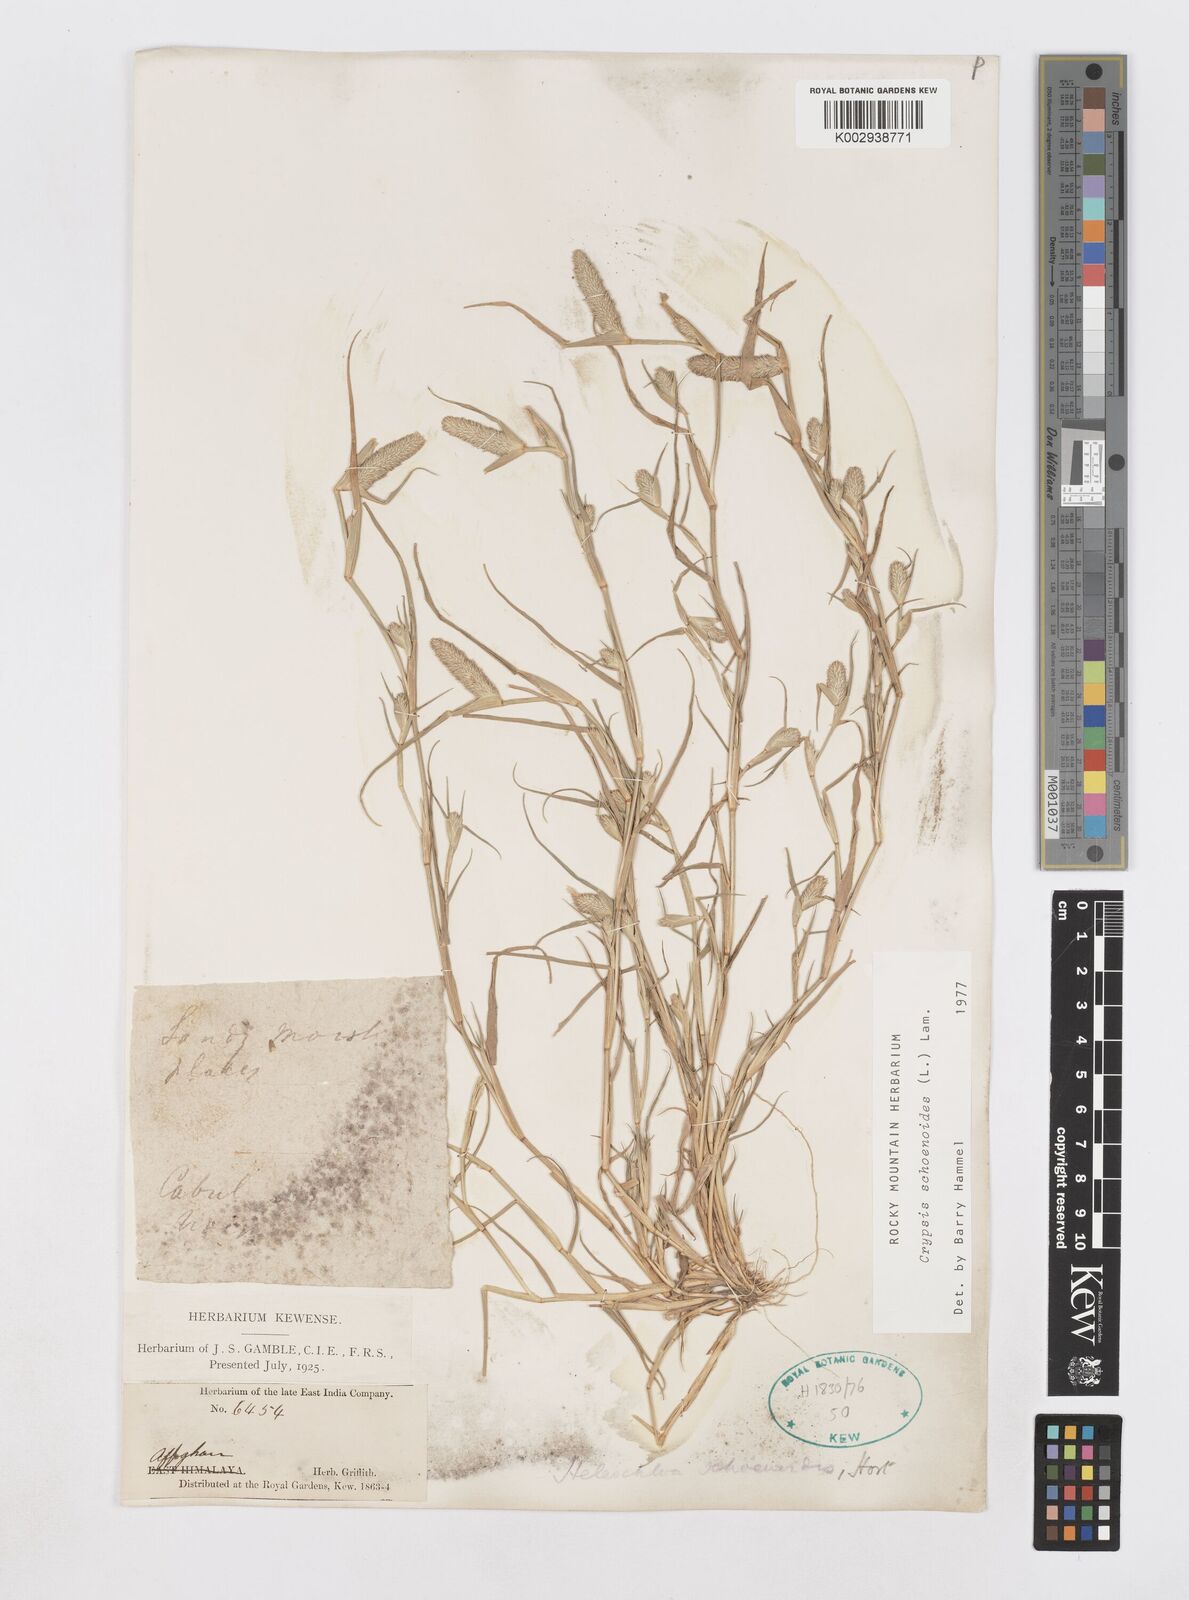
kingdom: Plantae
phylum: Tracheophyta
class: Liliopsida
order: Poales
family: Poaceae
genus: Sporobolus
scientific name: Sporobolus schoenoides
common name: Rush-like timothy
